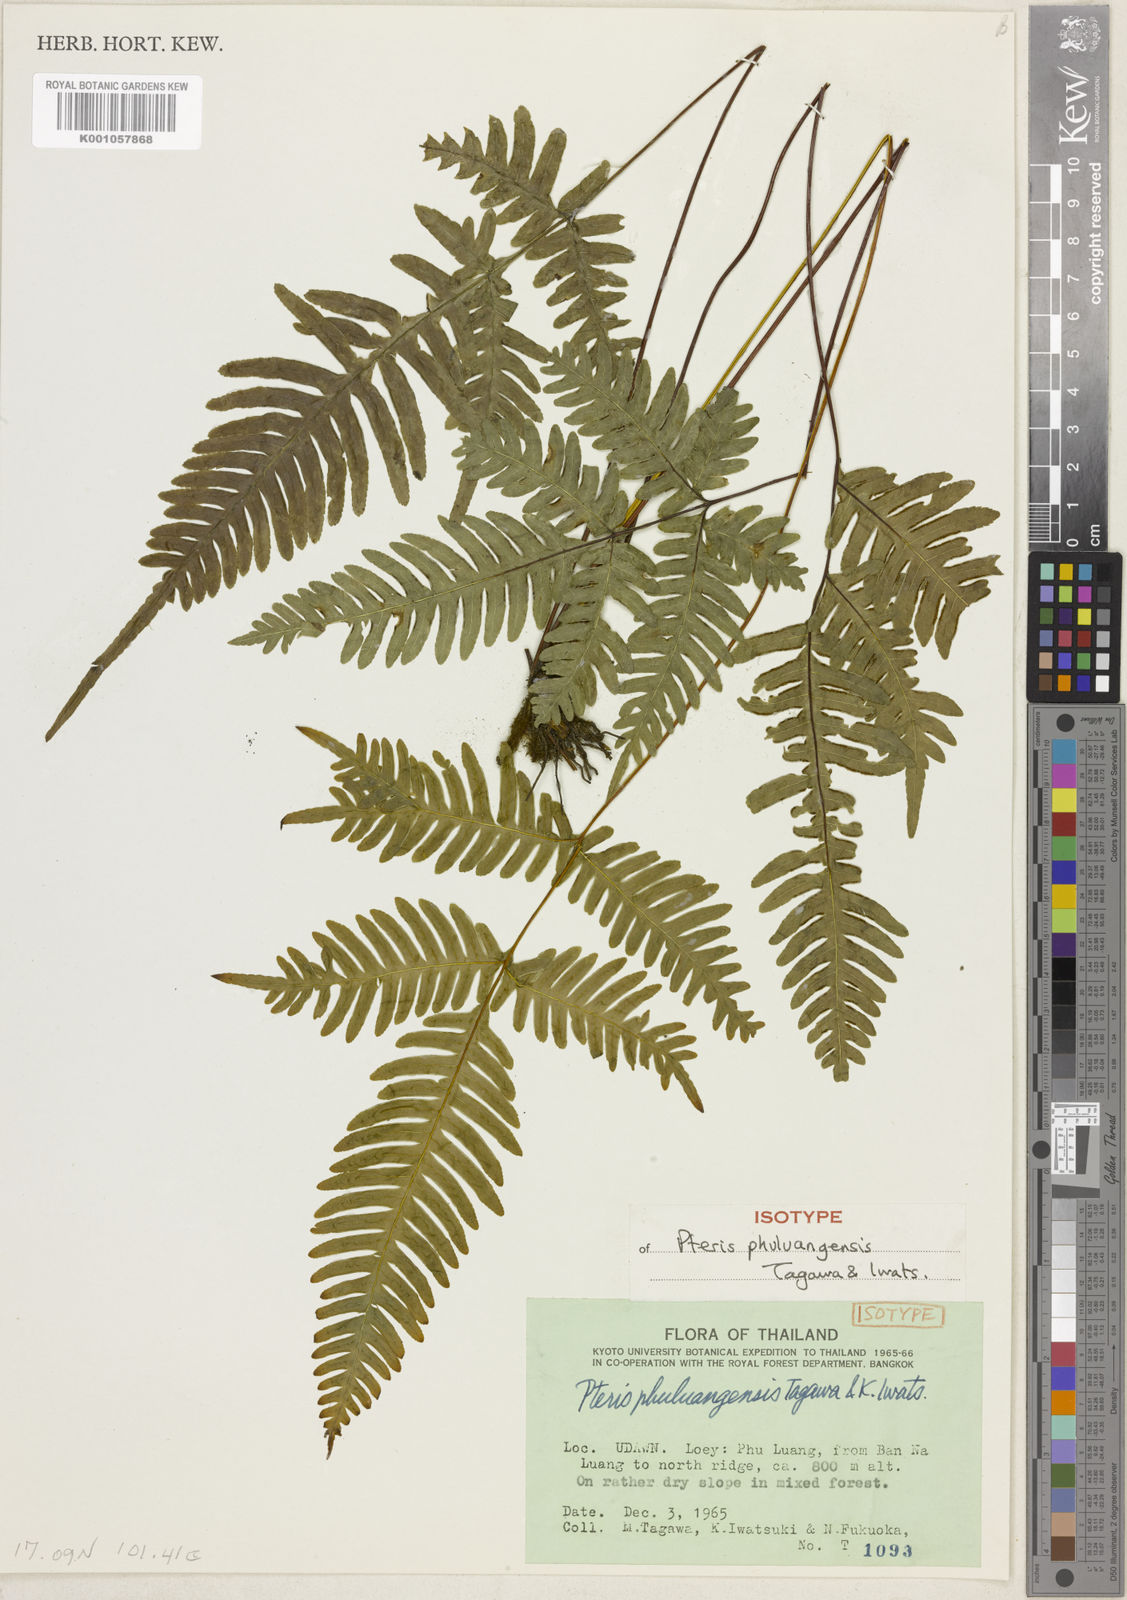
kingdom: Plantae
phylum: Tracheophyta
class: Polypodiopsida
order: Polypodiales
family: Pteridaceae
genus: Pteris
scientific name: Pteris phuluangensis
